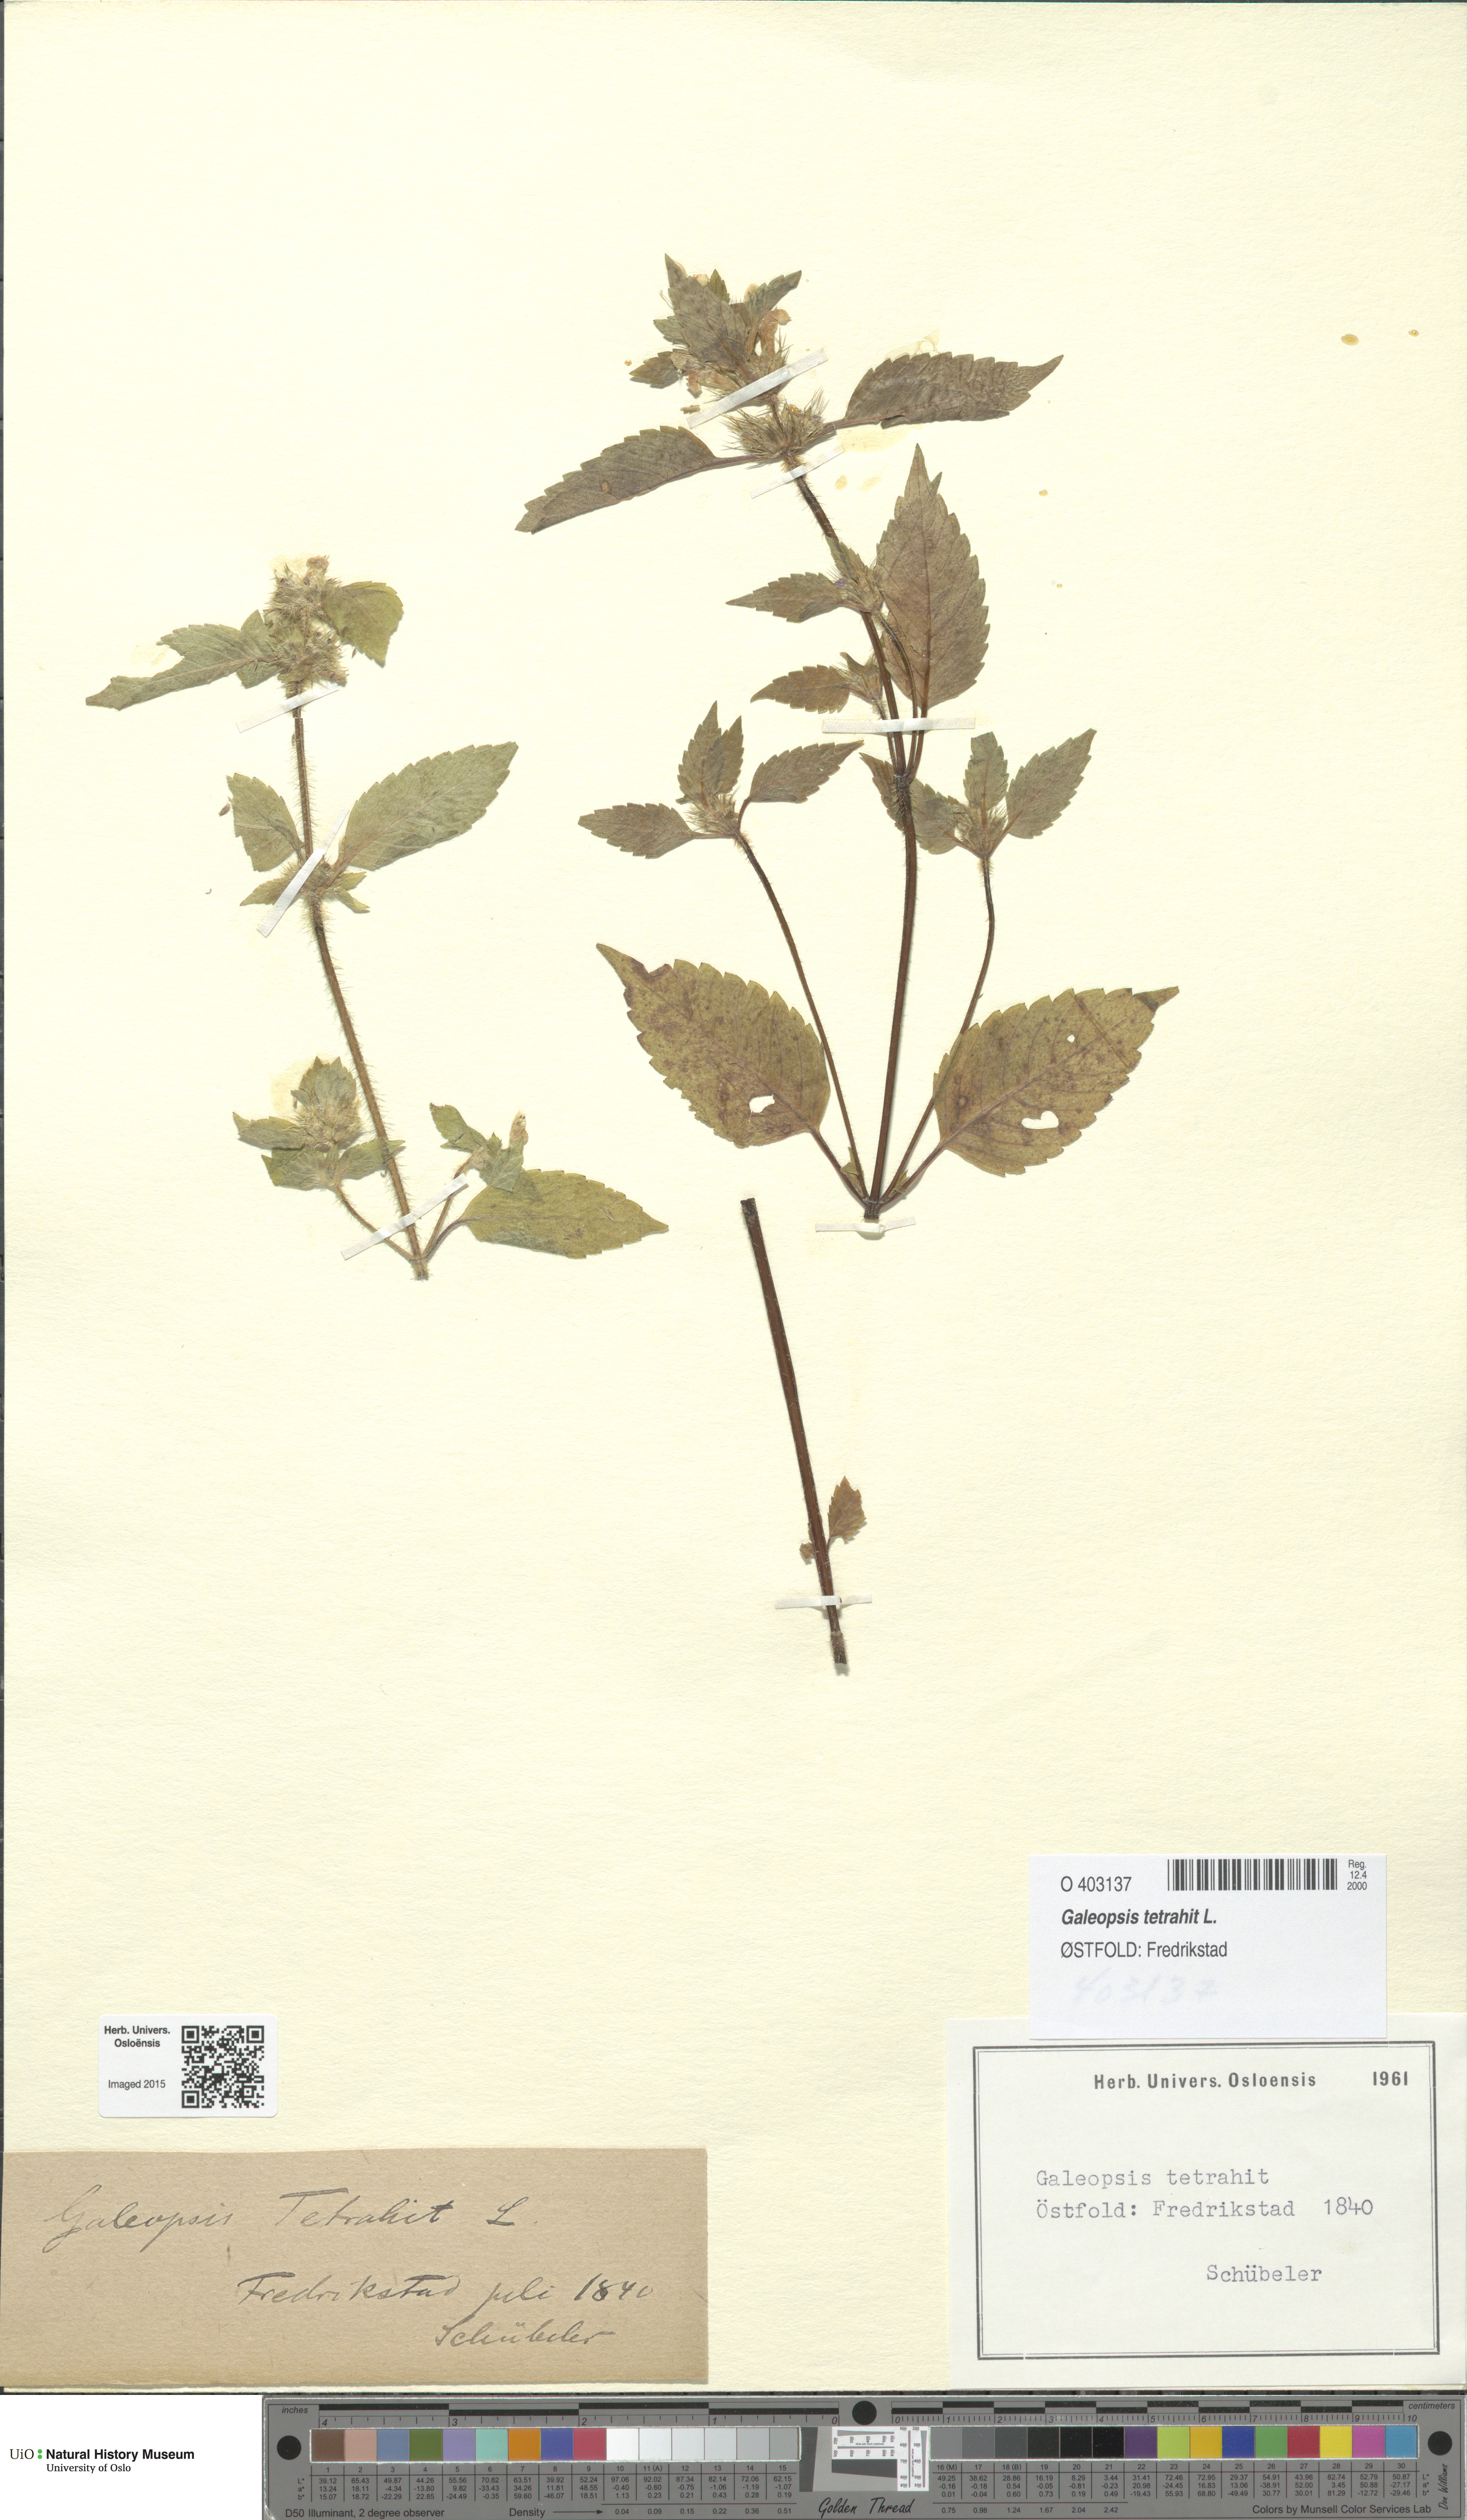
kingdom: Plantae
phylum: Tracheophyta
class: Magnoliopsida
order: Lamiales
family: Lamiaceae
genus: Galeopsis
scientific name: Galeopsis tetrahit
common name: Common hemp-nettle
